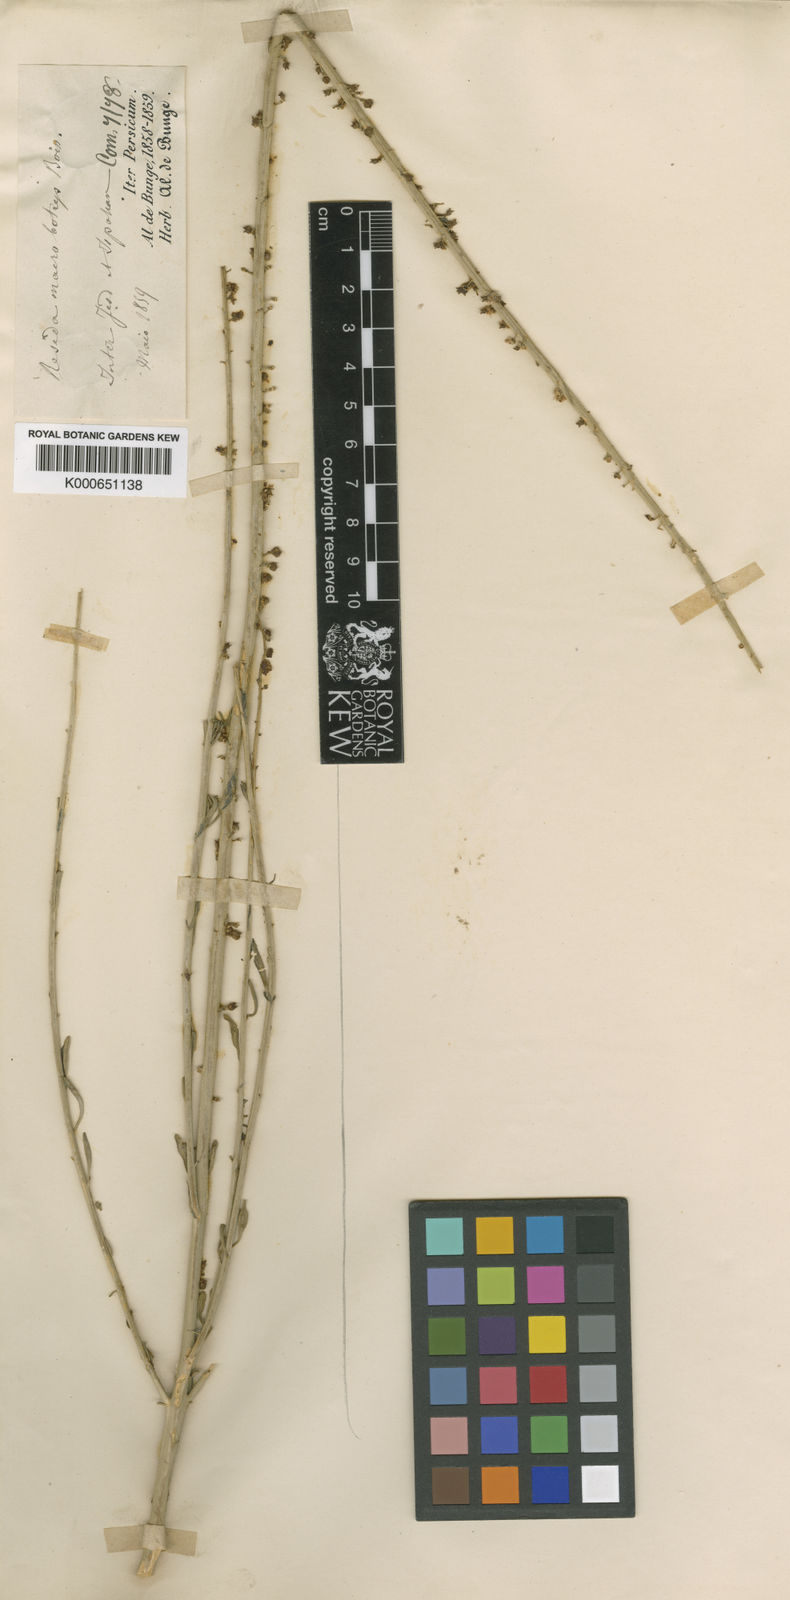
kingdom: Plantae
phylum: Tracheophyta
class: Magnoliopsida
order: Brassicales
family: Resedaceae
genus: Reseda
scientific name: Reseda macrobotrys
